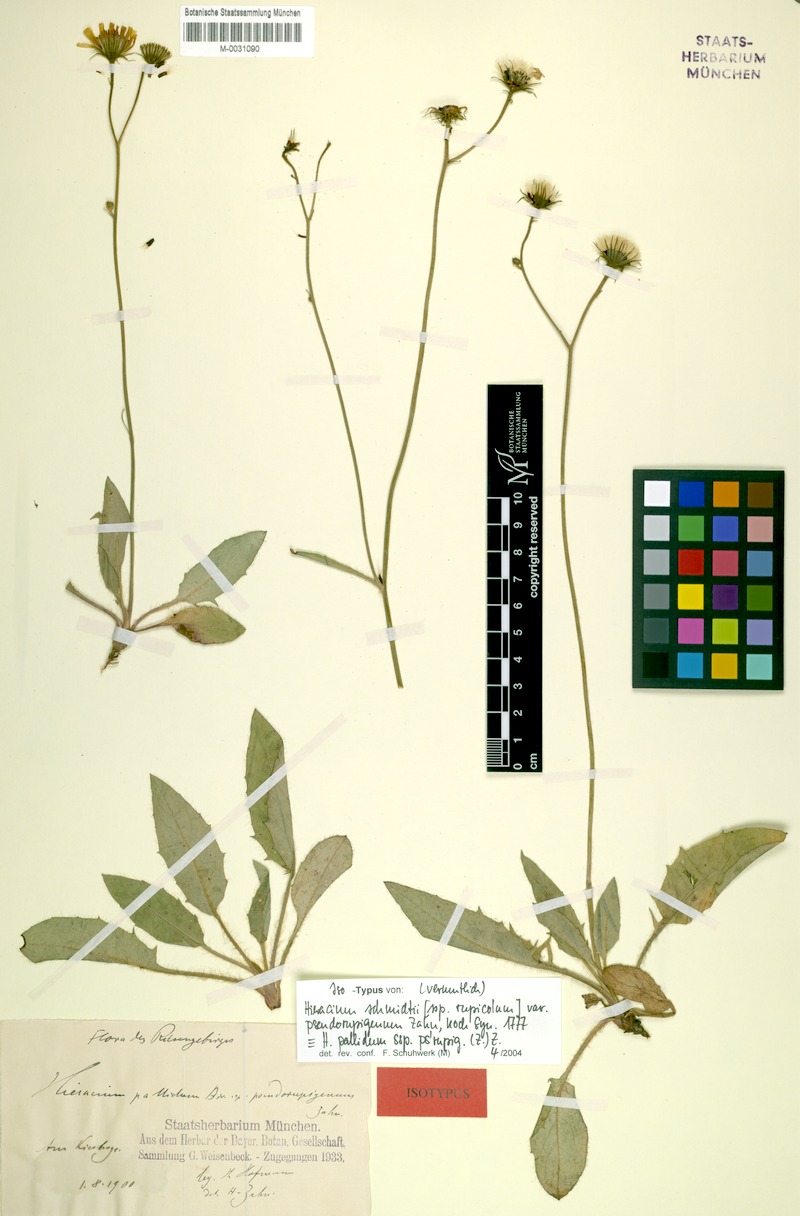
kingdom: Plantae
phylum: Tracheophyta
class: Magnoliopsida
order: Asterales
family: Asteraceae
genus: Hieracium
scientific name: Hieracium schmidtii
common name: Schmidt's hawkweed
